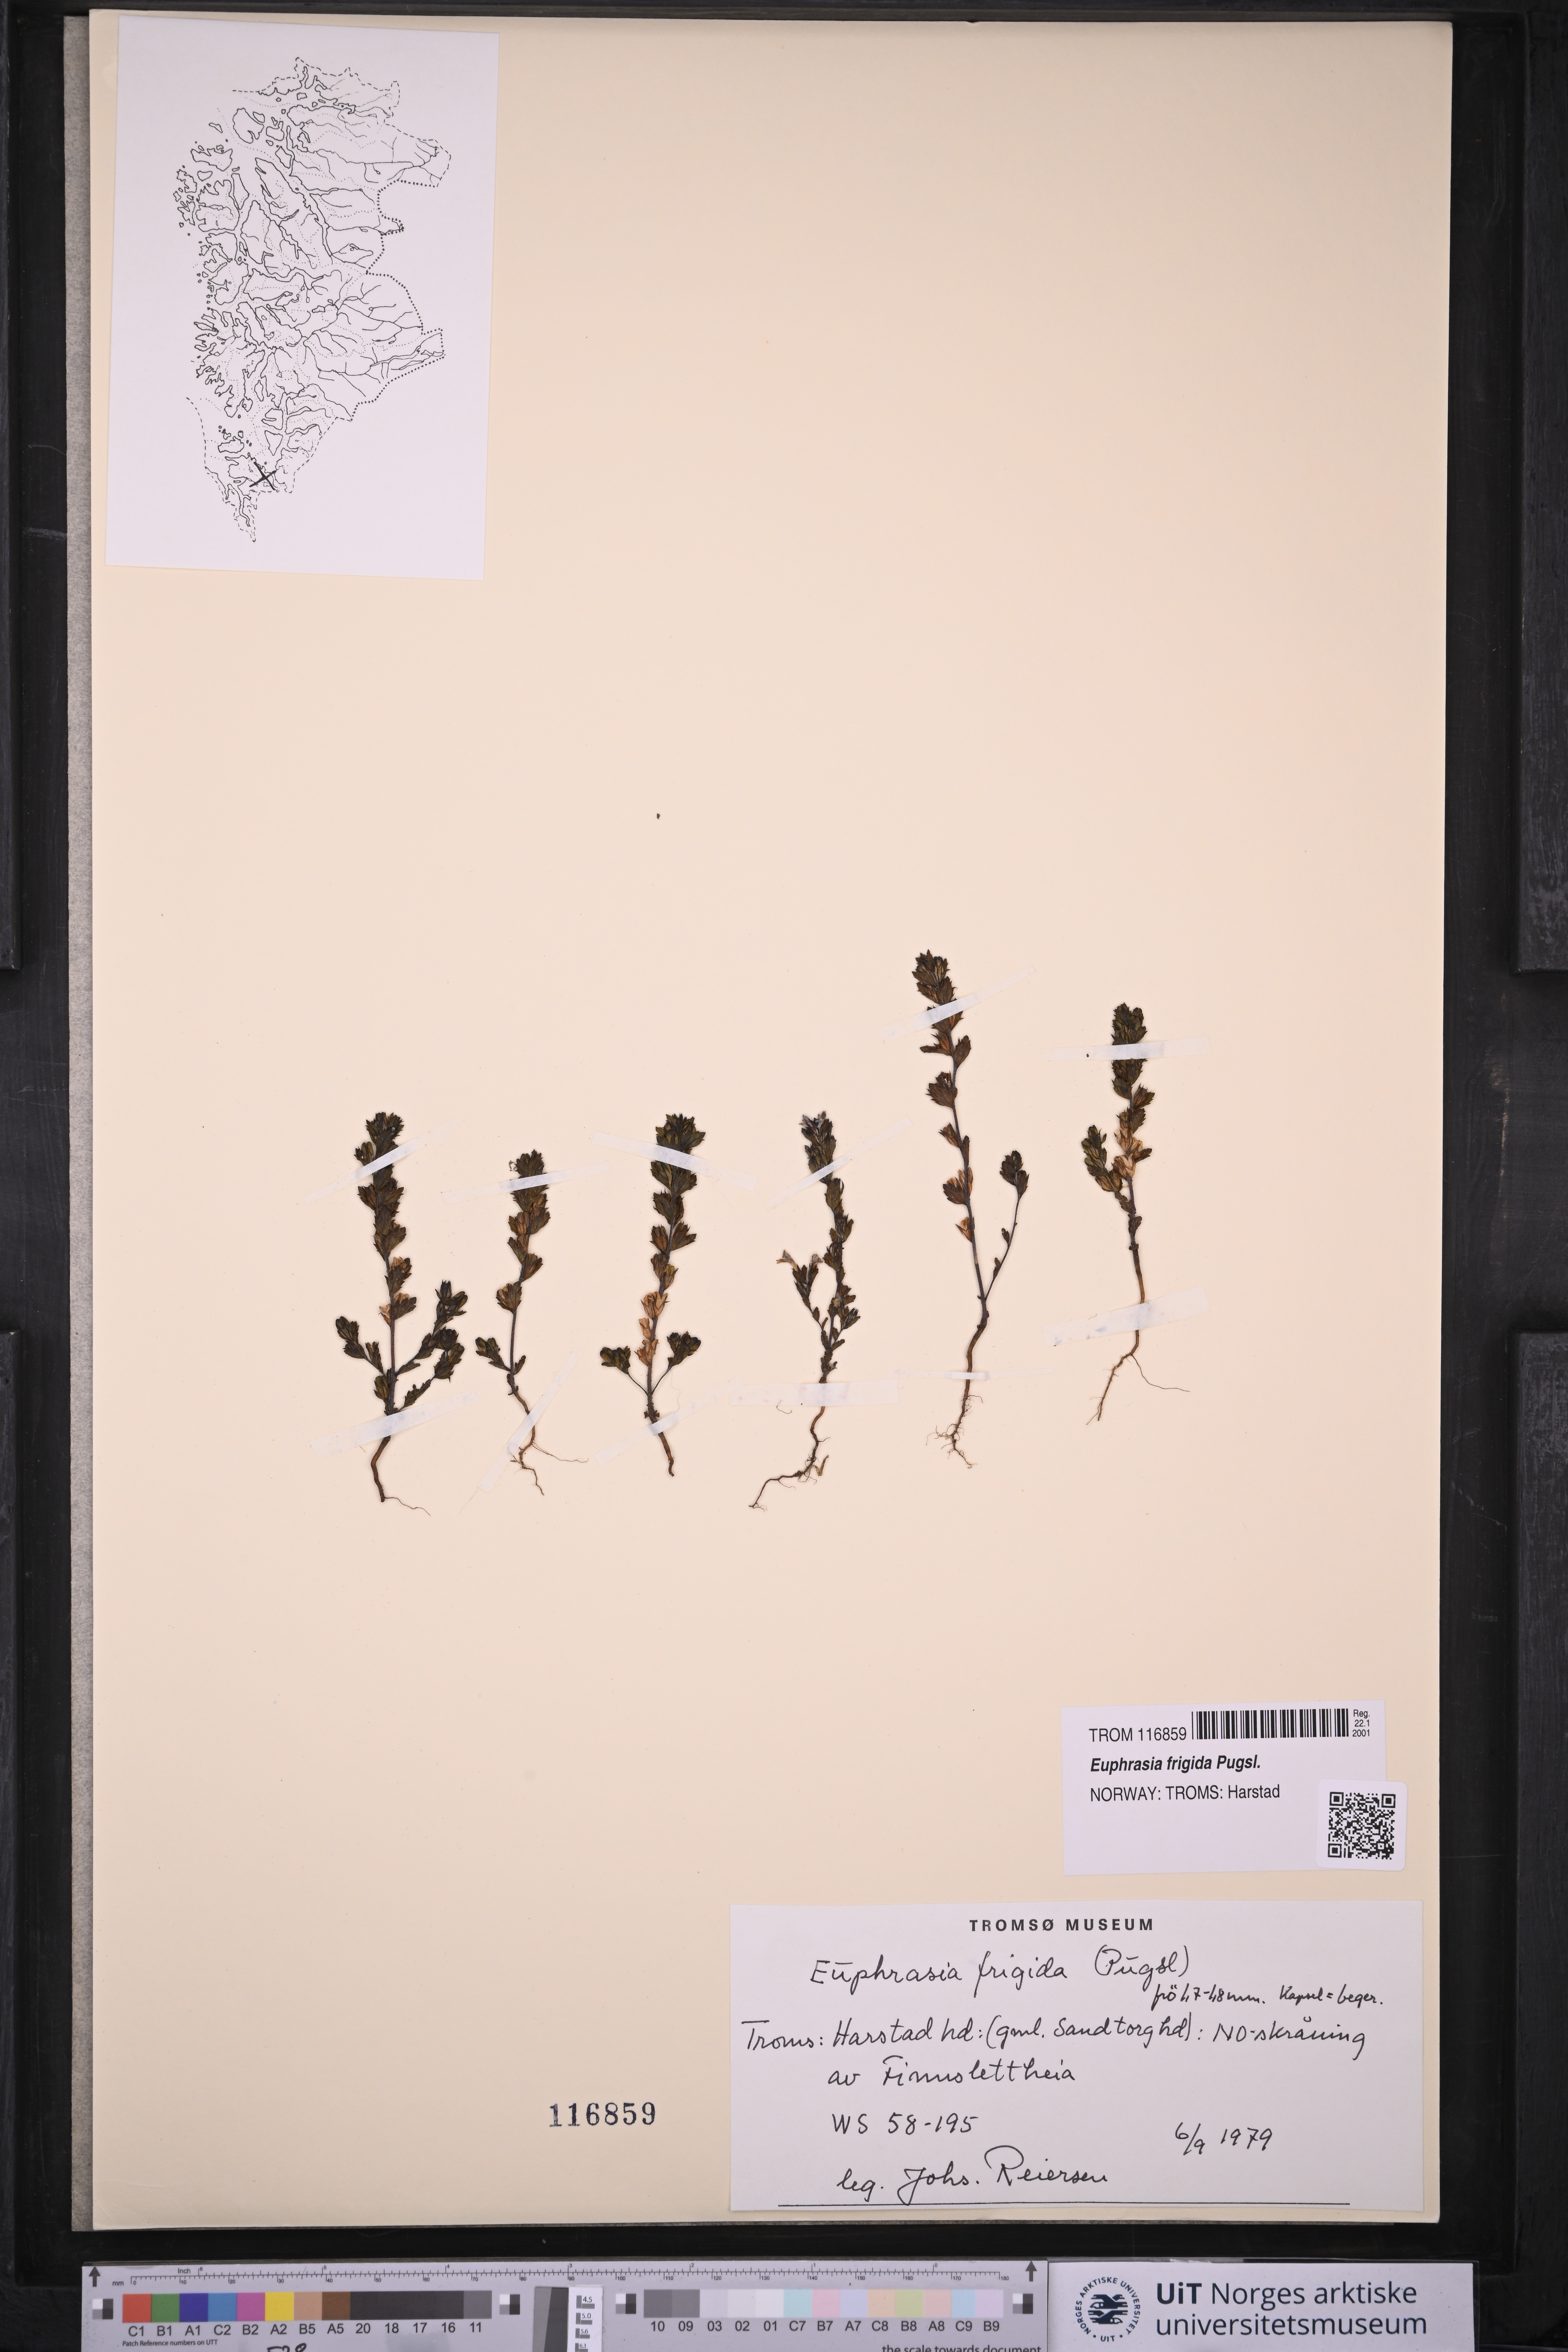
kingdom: Plantae
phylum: Tracheophyta
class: Magnoliopsida
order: Lamiales
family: Orobanchaceae
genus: Euphrasia
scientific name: Euphrasia frigida
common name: An eyebright
